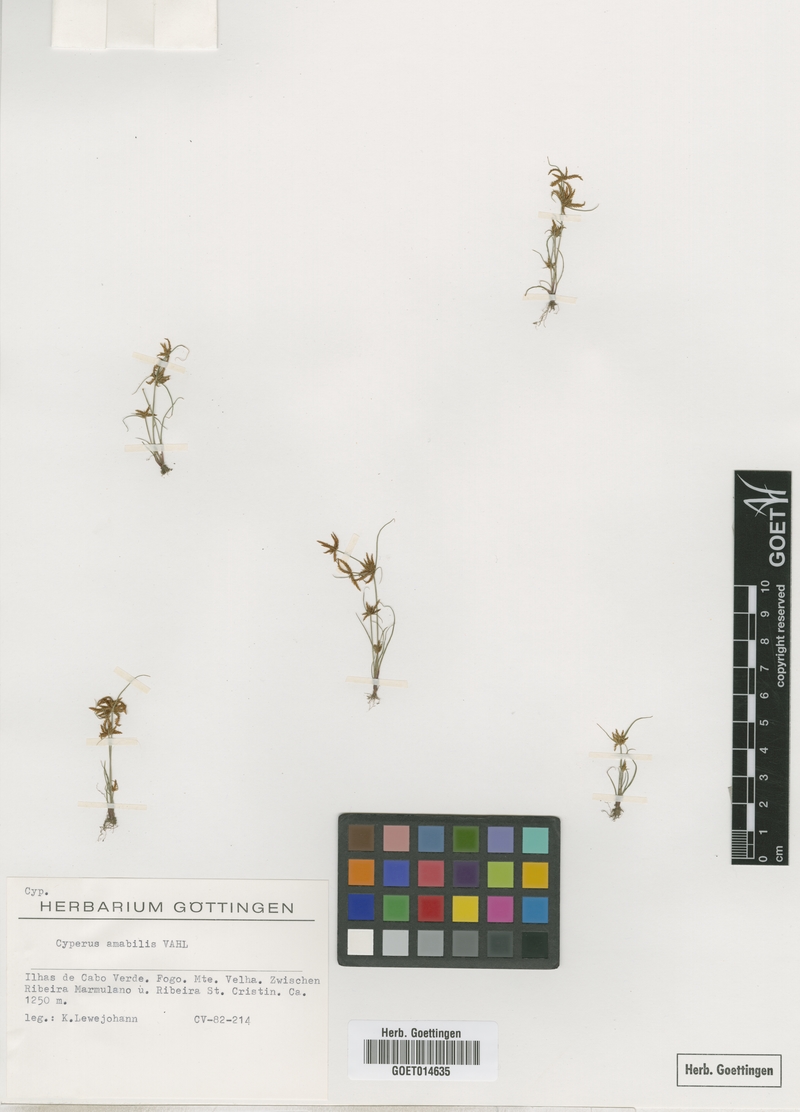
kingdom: Plantae
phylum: Tracheophyta
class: Liliopsida
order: Poales
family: Cyperaceae
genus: Cyperus
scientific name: Cyperus amabilis
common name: Foothill flat sedge
